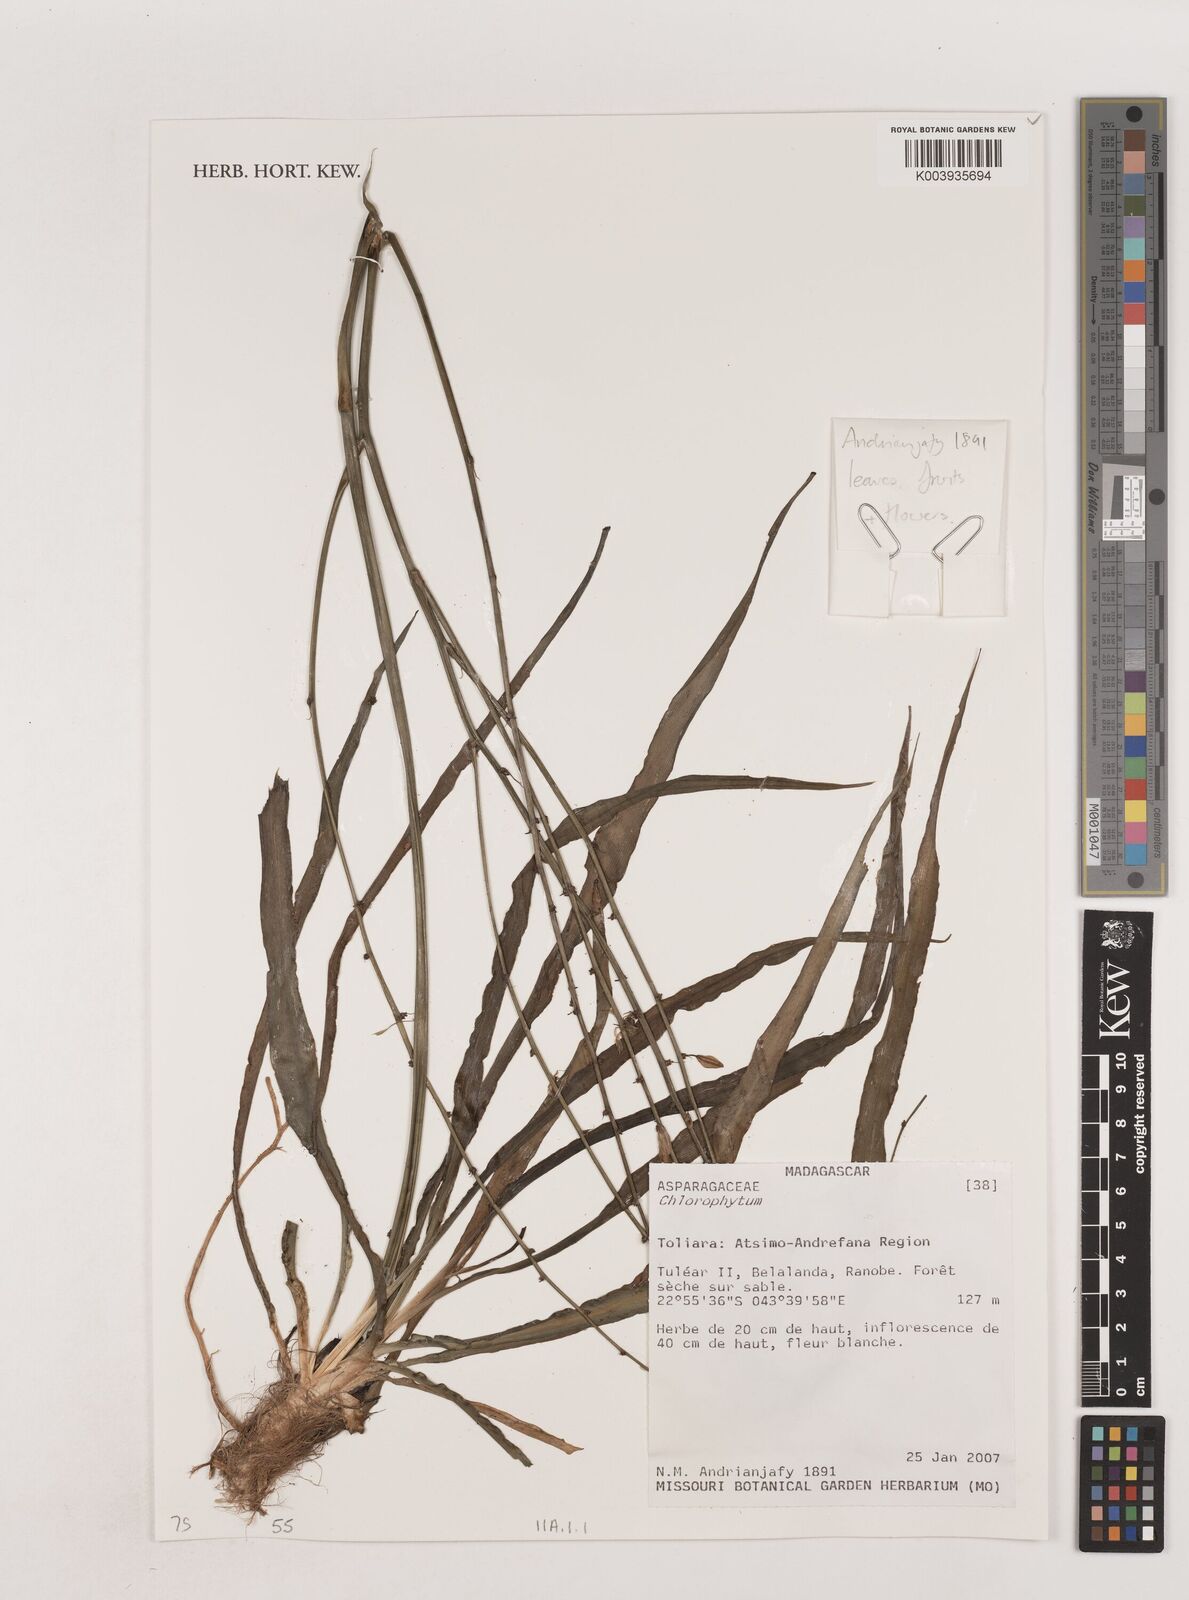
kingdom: Plantae
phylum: Tracheophyta
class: Liliopsida
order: Asparagales
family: Asparagaceae
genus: Chlorophytum
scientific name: Chlorophytum
